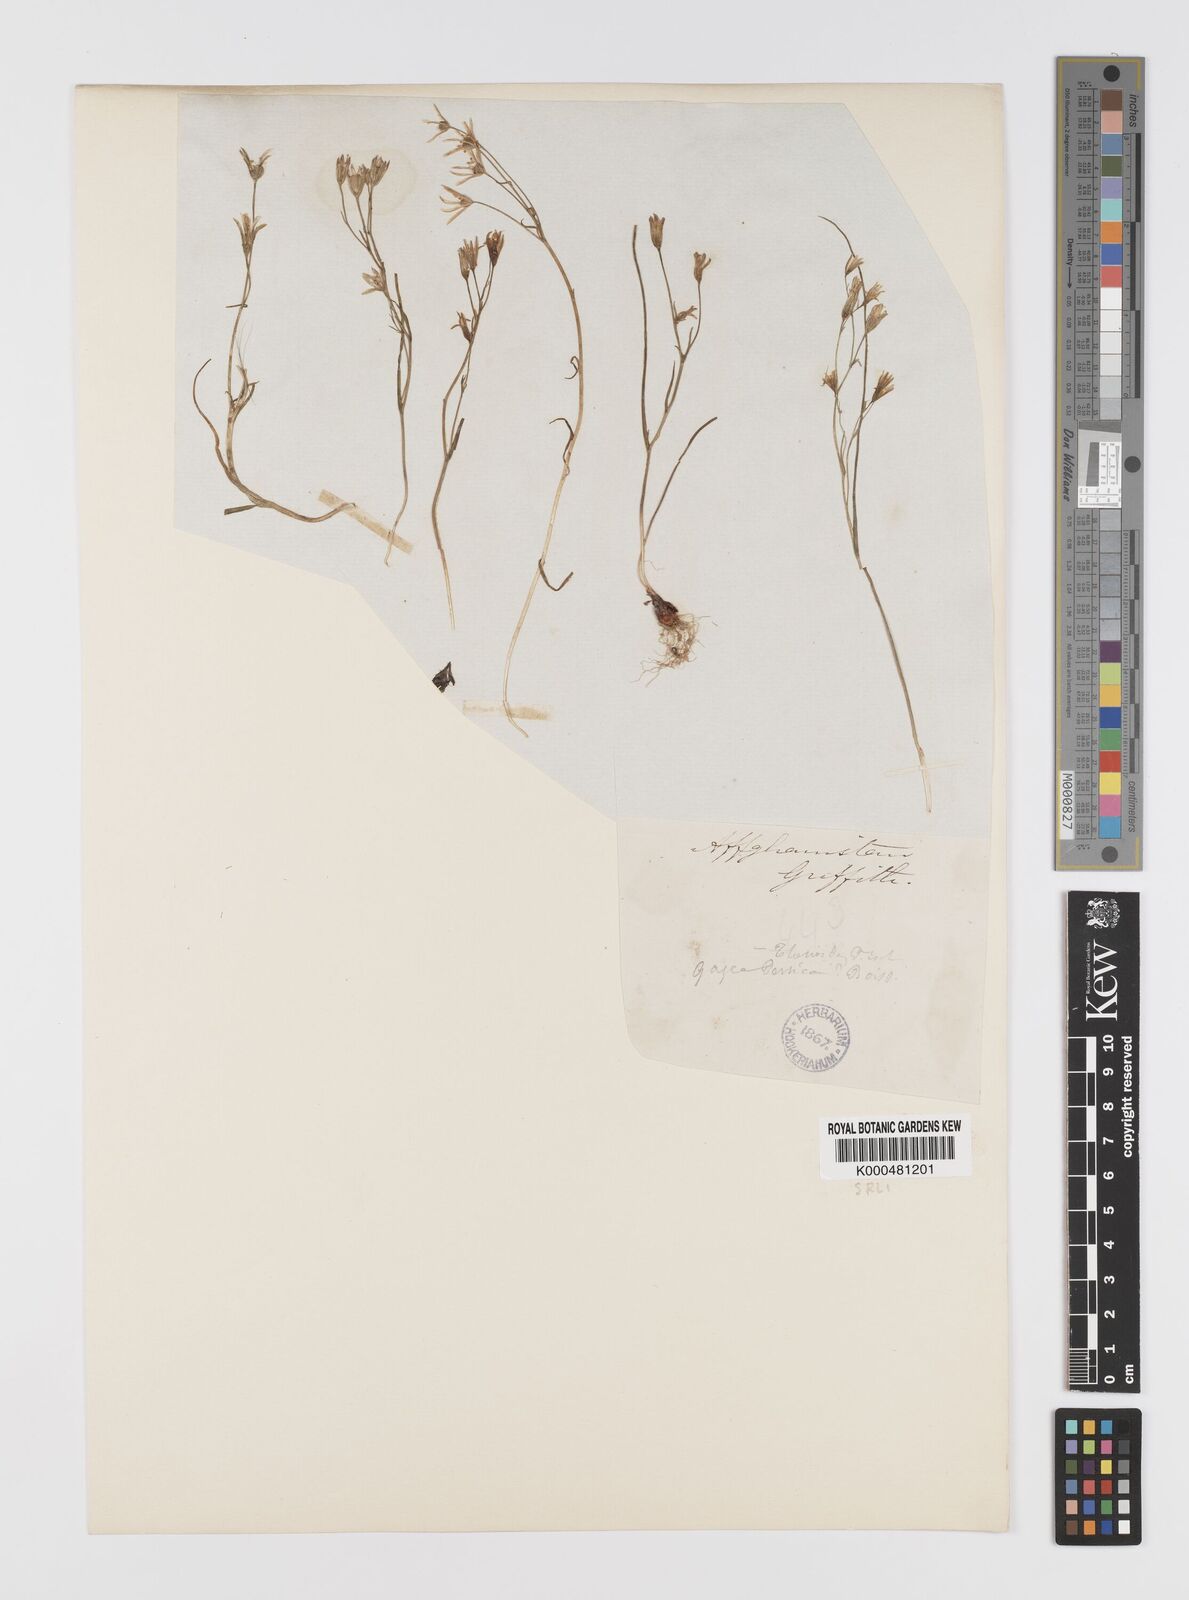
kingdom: Plantae
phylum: Tracheophyta
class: Liliopsida
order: Liliales
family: Liliaceae
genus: Gagea
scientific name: Gagea kunawurensis
